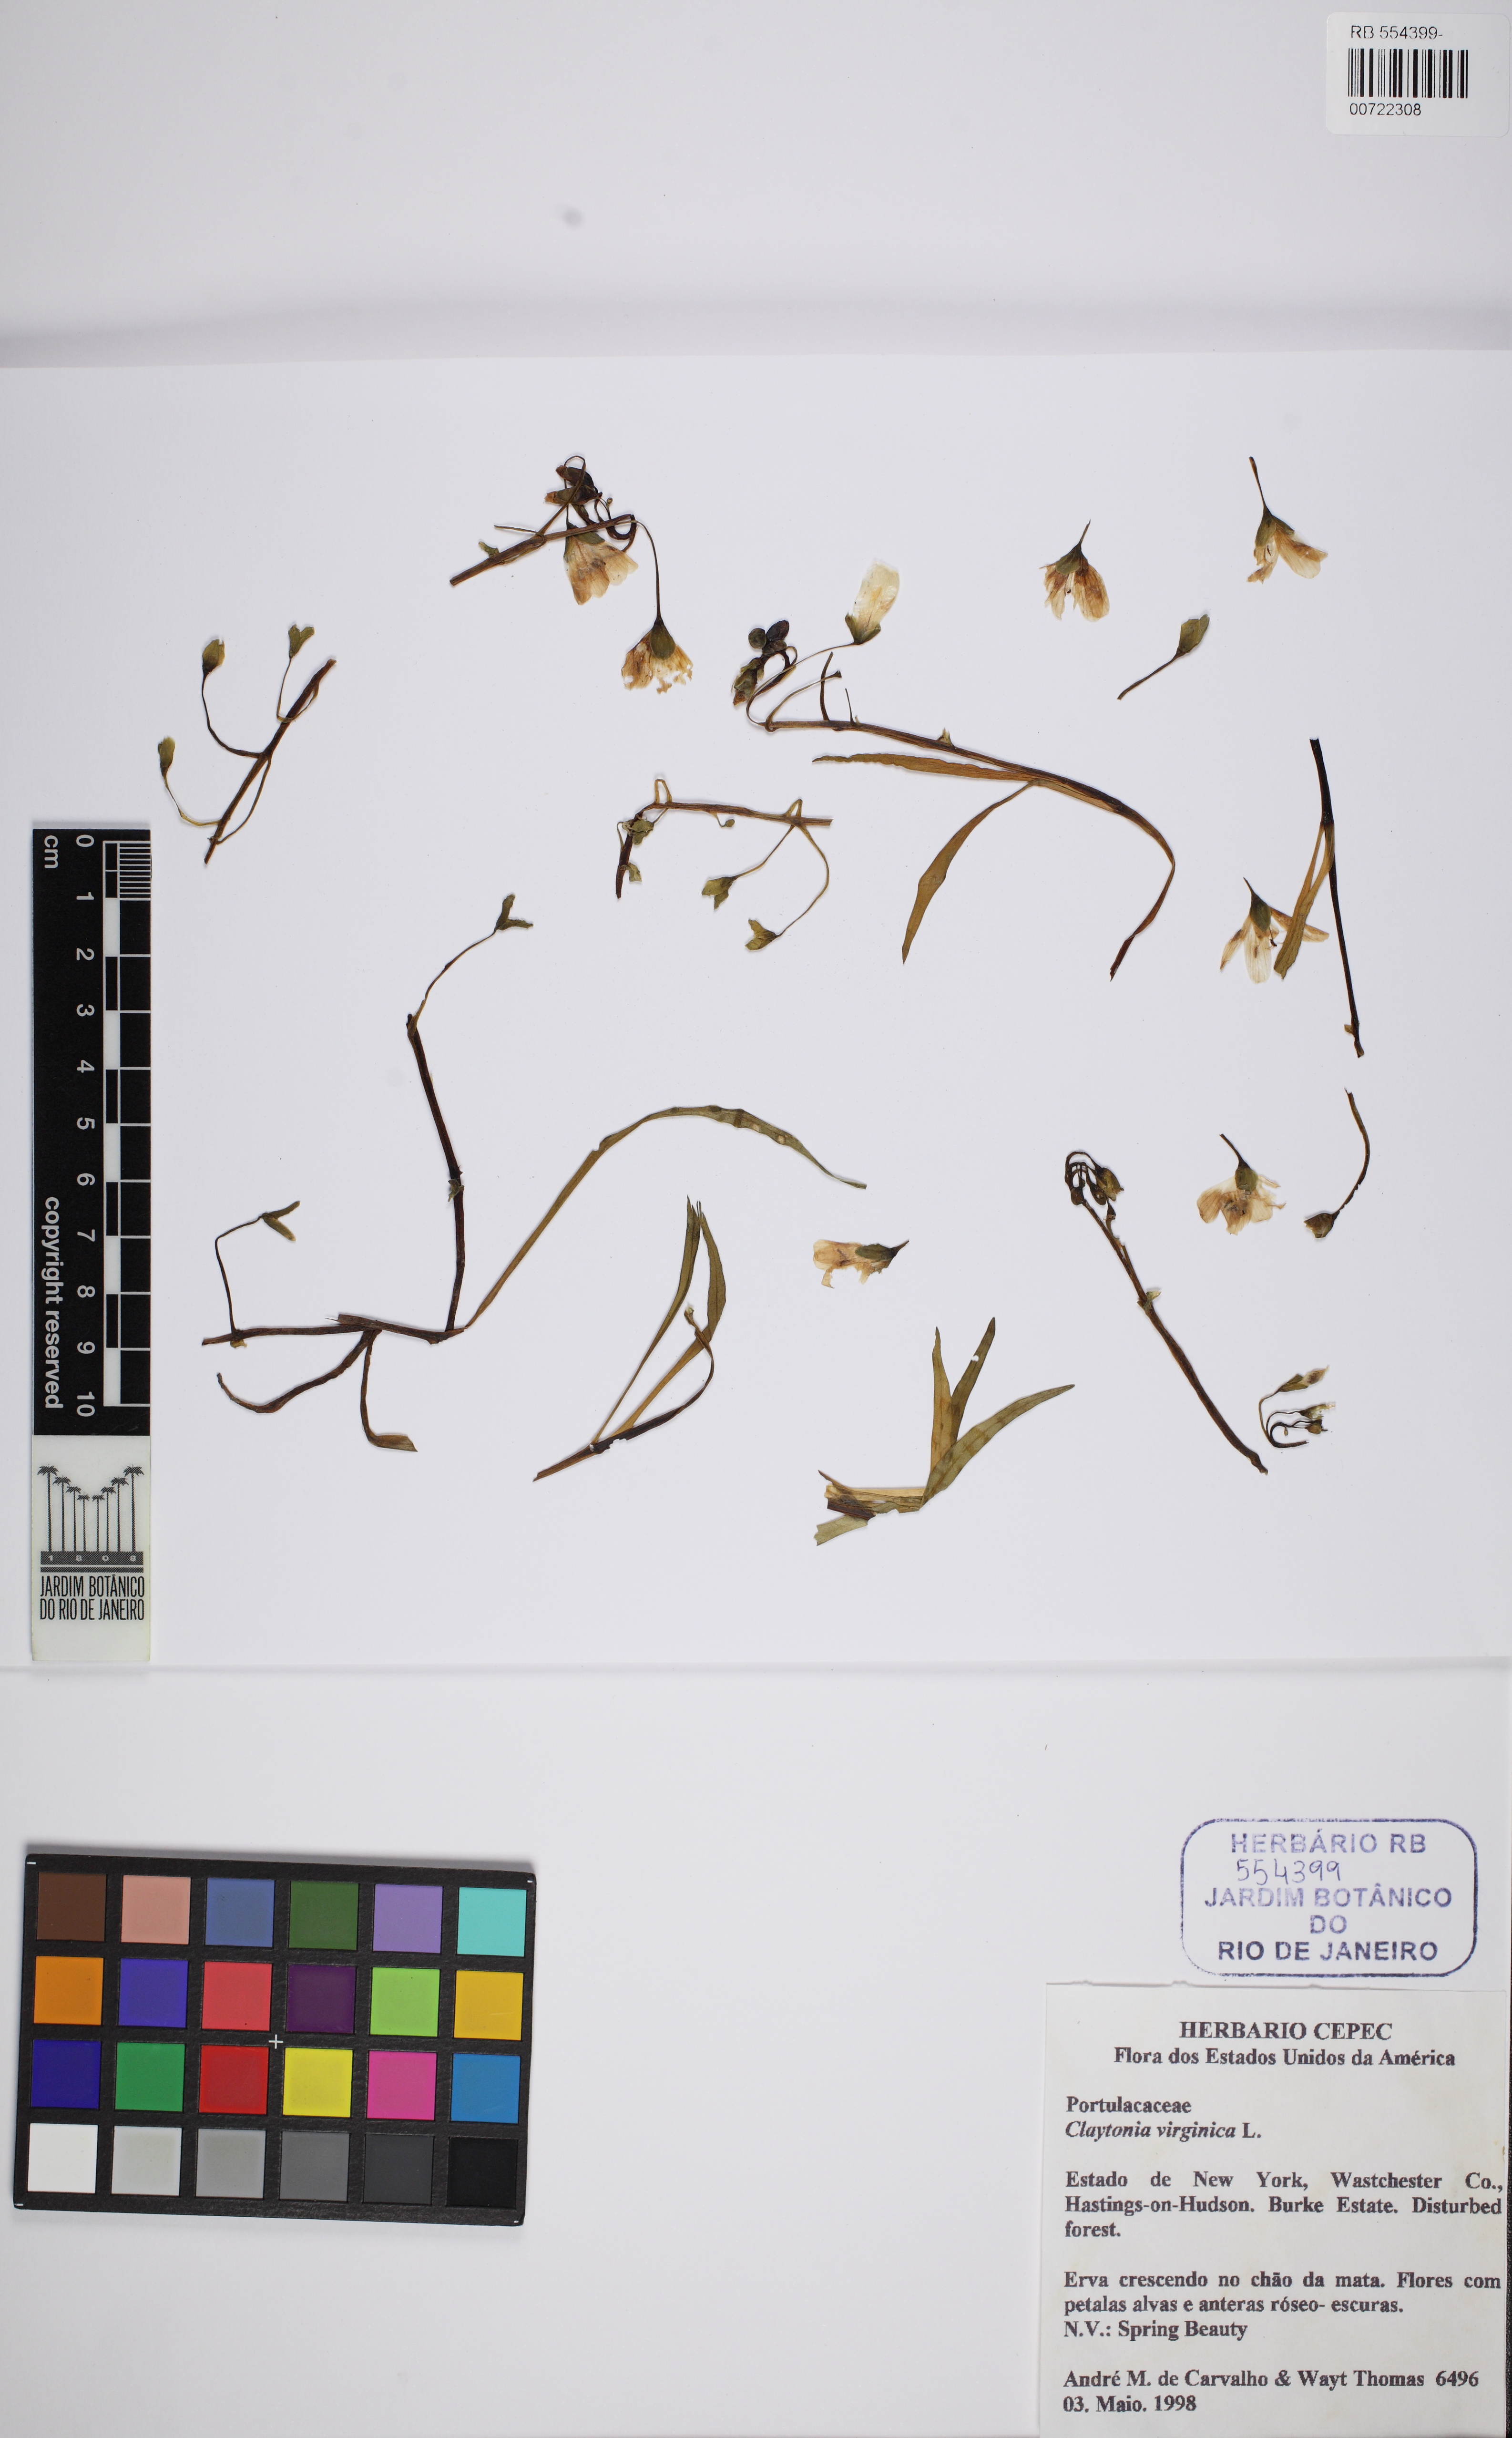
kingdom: Plantae
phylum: Tracheophyta
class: Magnoliopsida
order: Caryophyllales
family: Montiaceae
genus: Claytonia
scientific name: Claytonia
